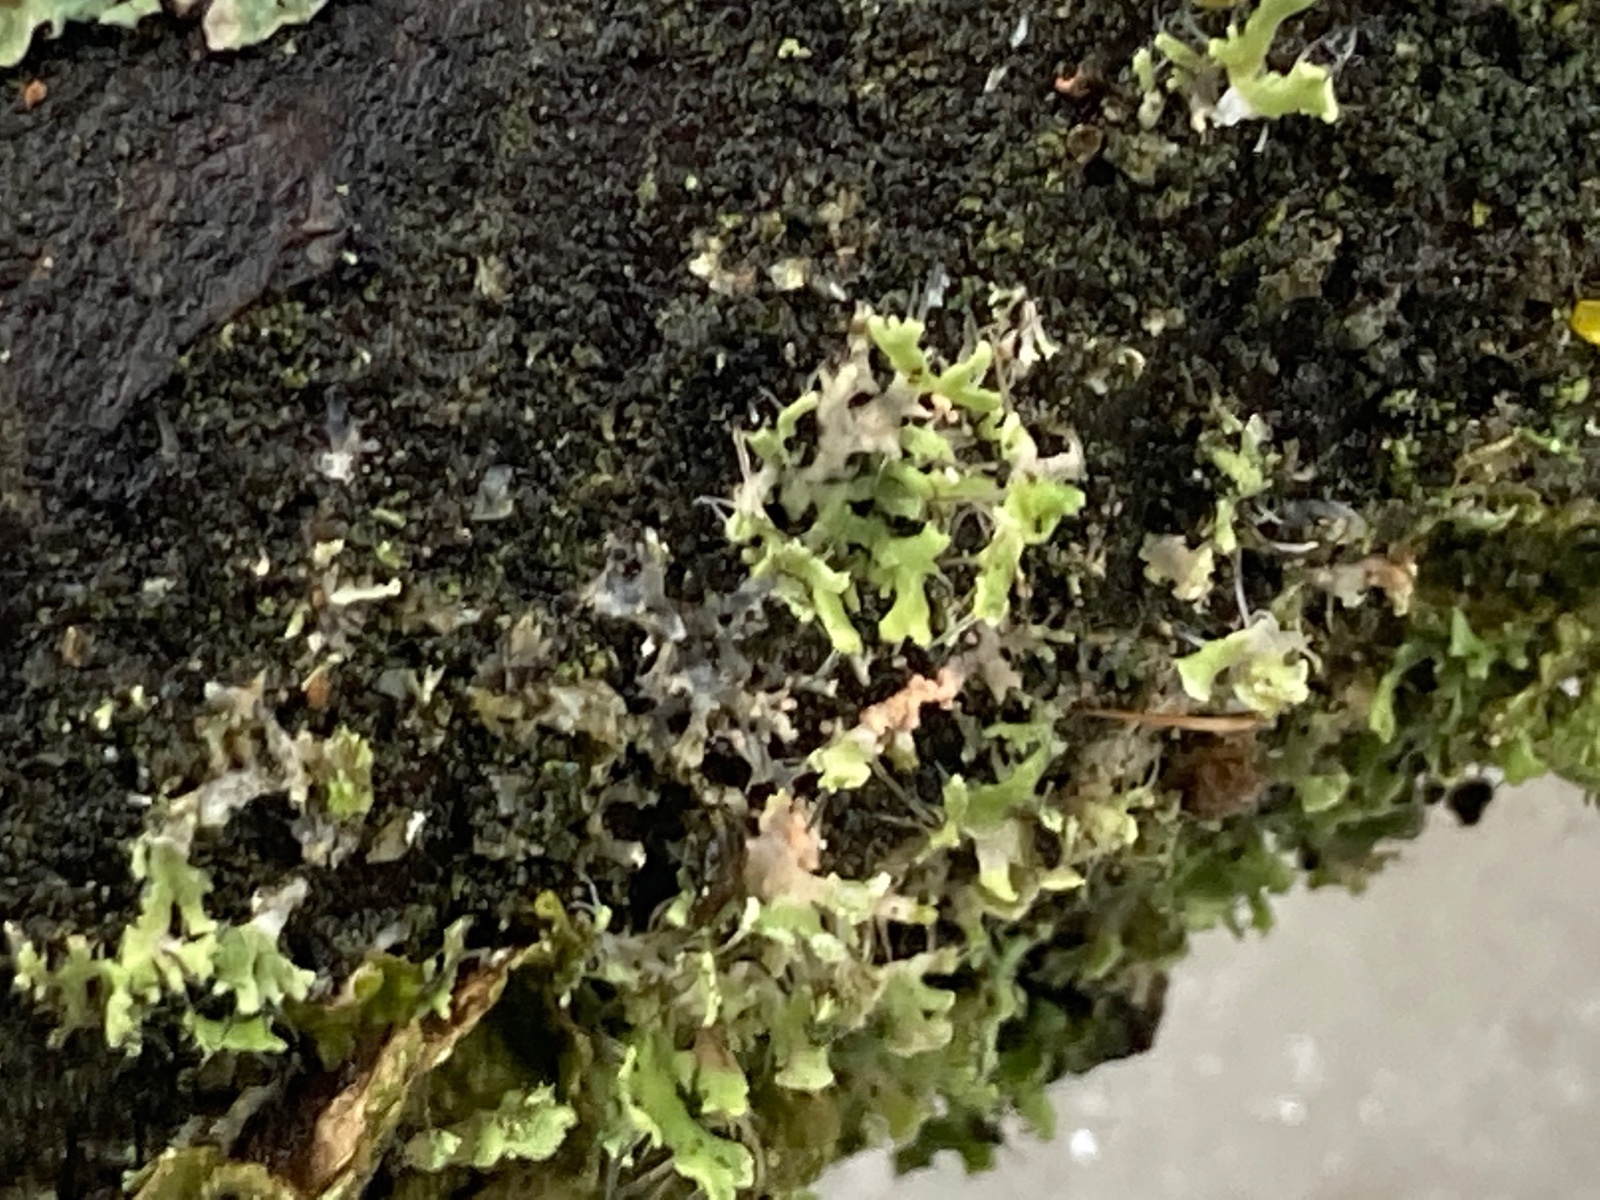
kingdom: Fungi
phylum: Basidiomycota
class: Agaricomycetes
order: Corticiales
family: Corticiaceae
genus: Erythricium
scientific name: Erythricium aurantiacum
